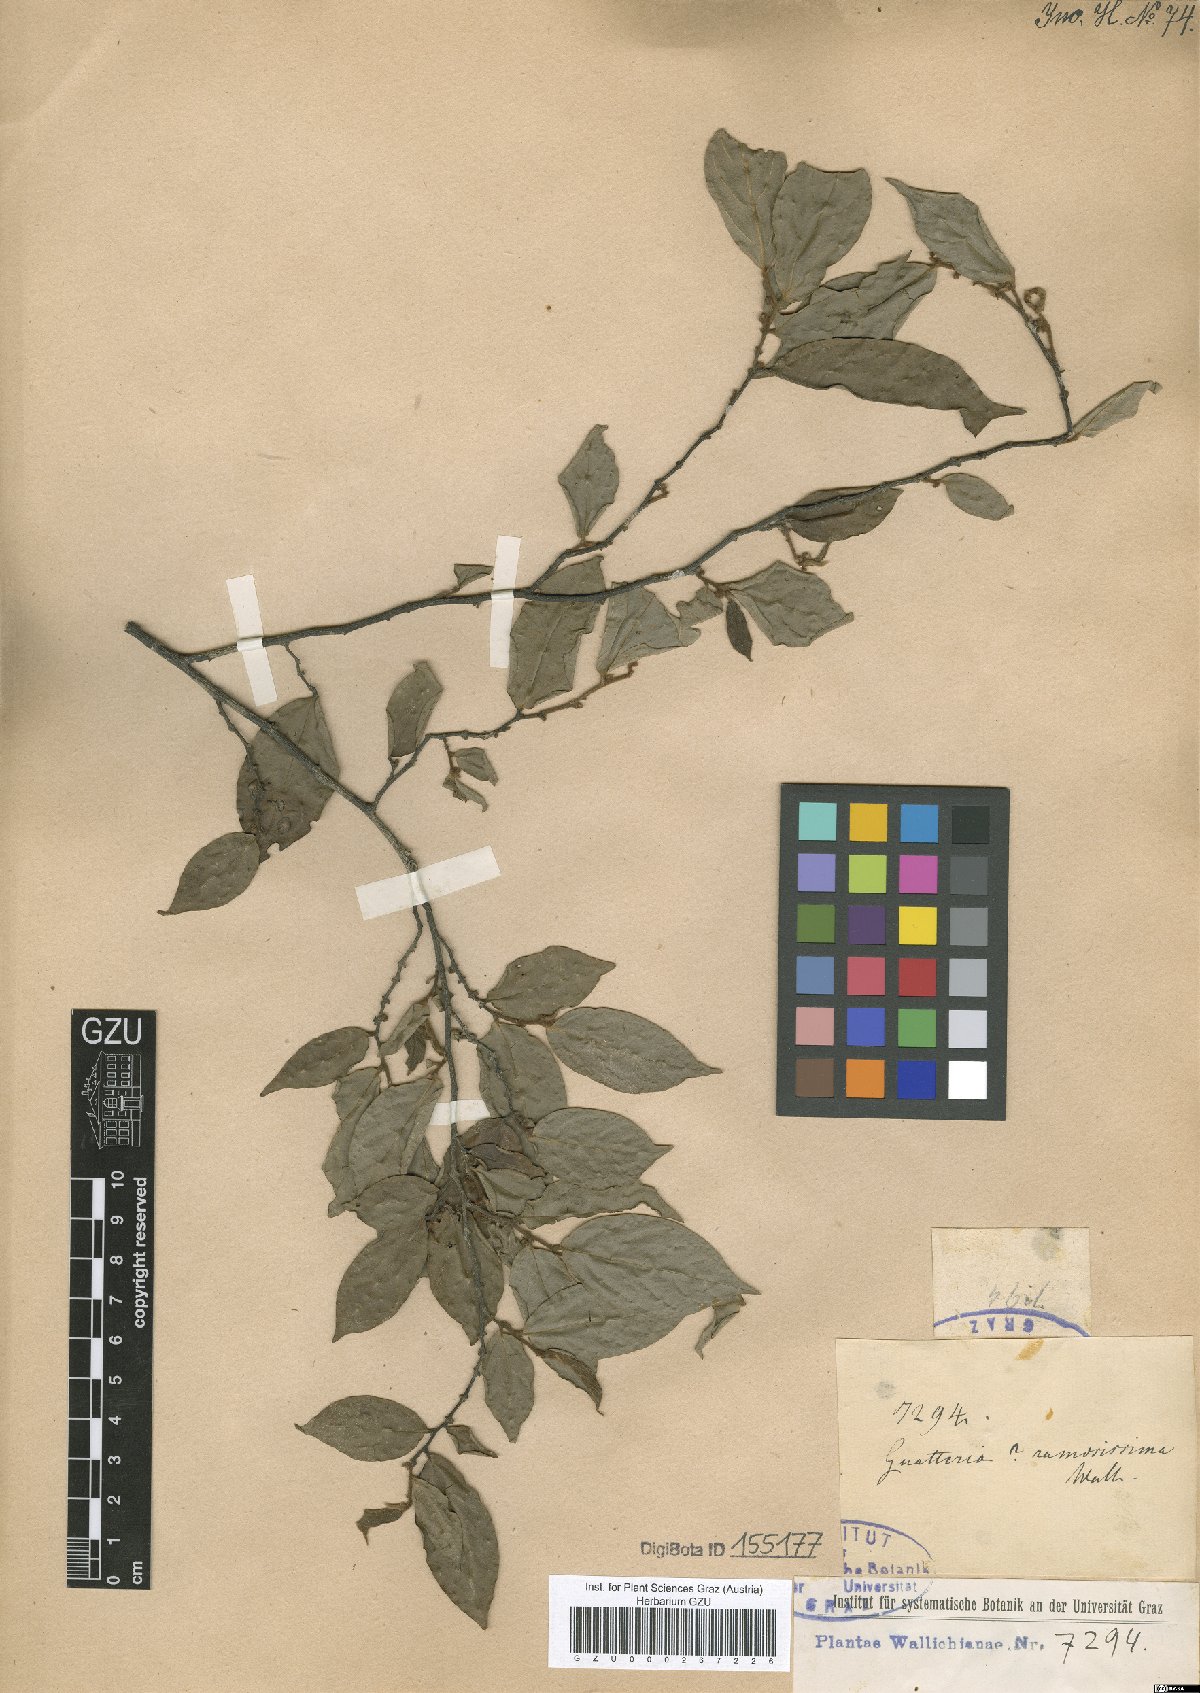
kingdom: Plantae
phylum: Tracheophyta
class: Magnoliopsida
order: Magnoliales
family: Annonaceae
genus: Popowia
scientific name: Popowia pisocarpa
